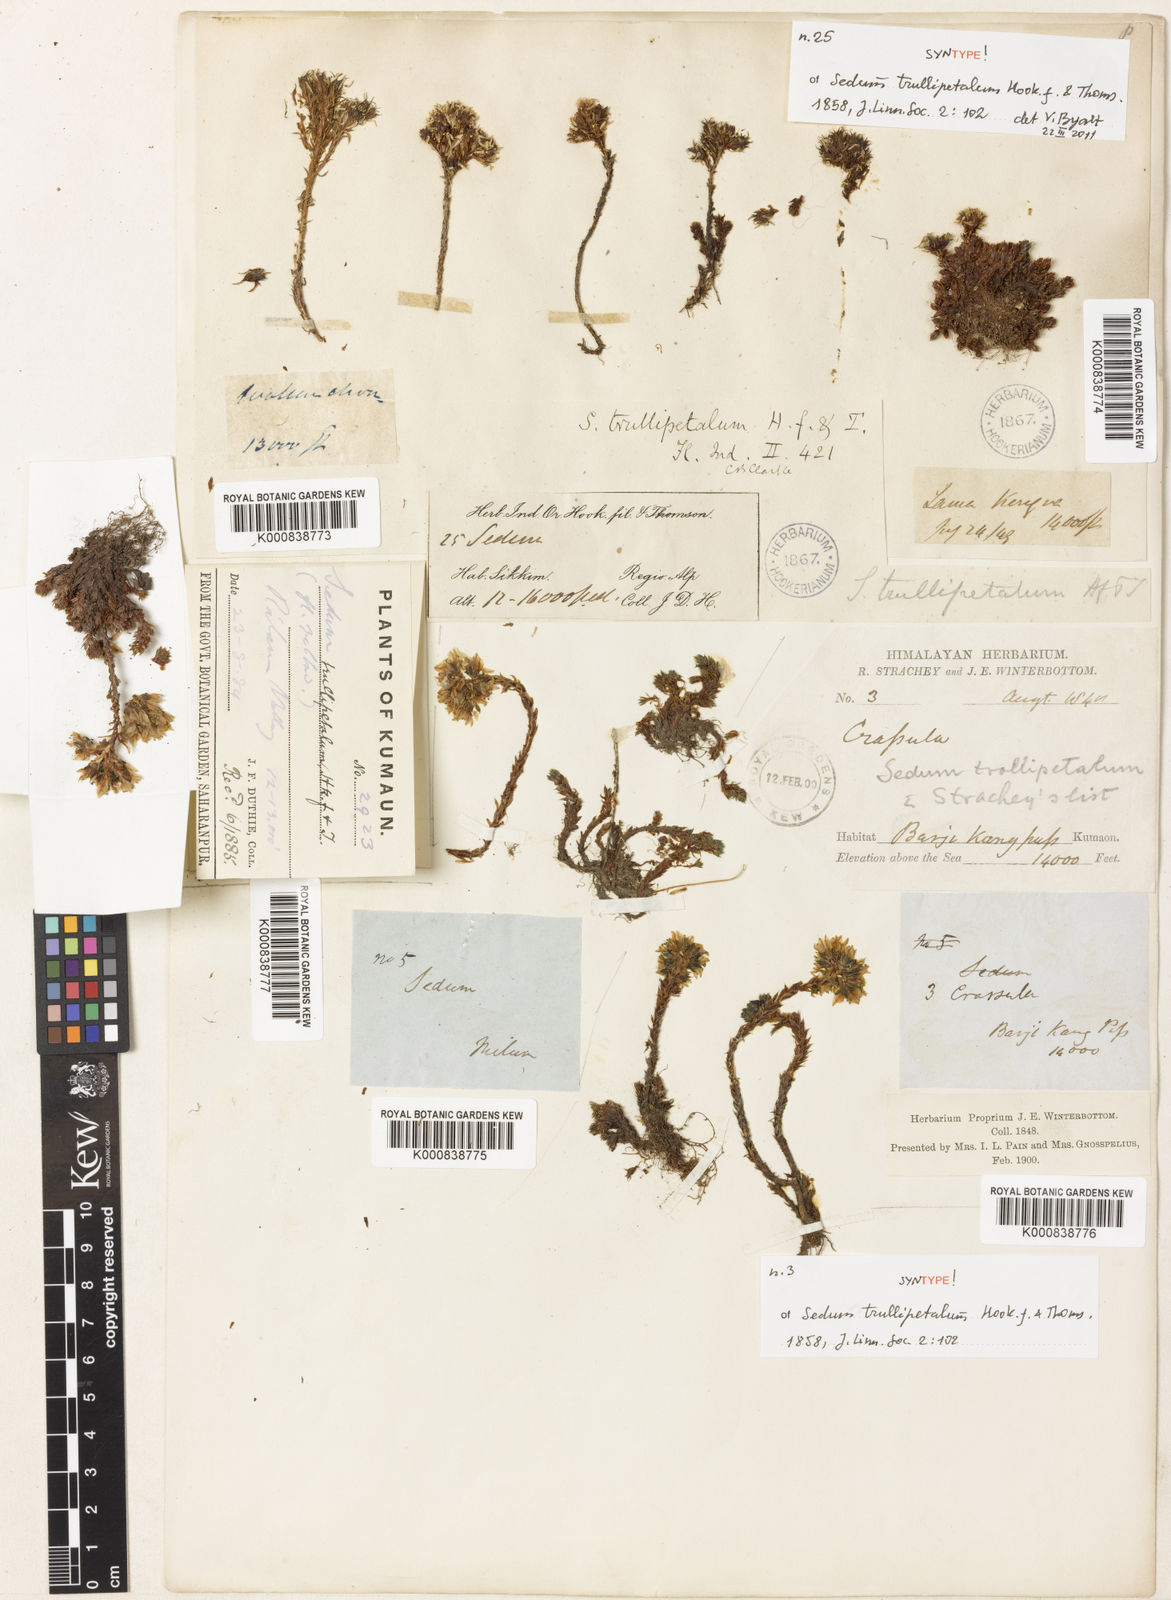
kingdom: Plantae
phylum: Tracheophyta
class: Magnoliopsida
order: Saxifragales
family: Crassulaceae
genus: Sedum
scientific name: Sedum trullipetalum
